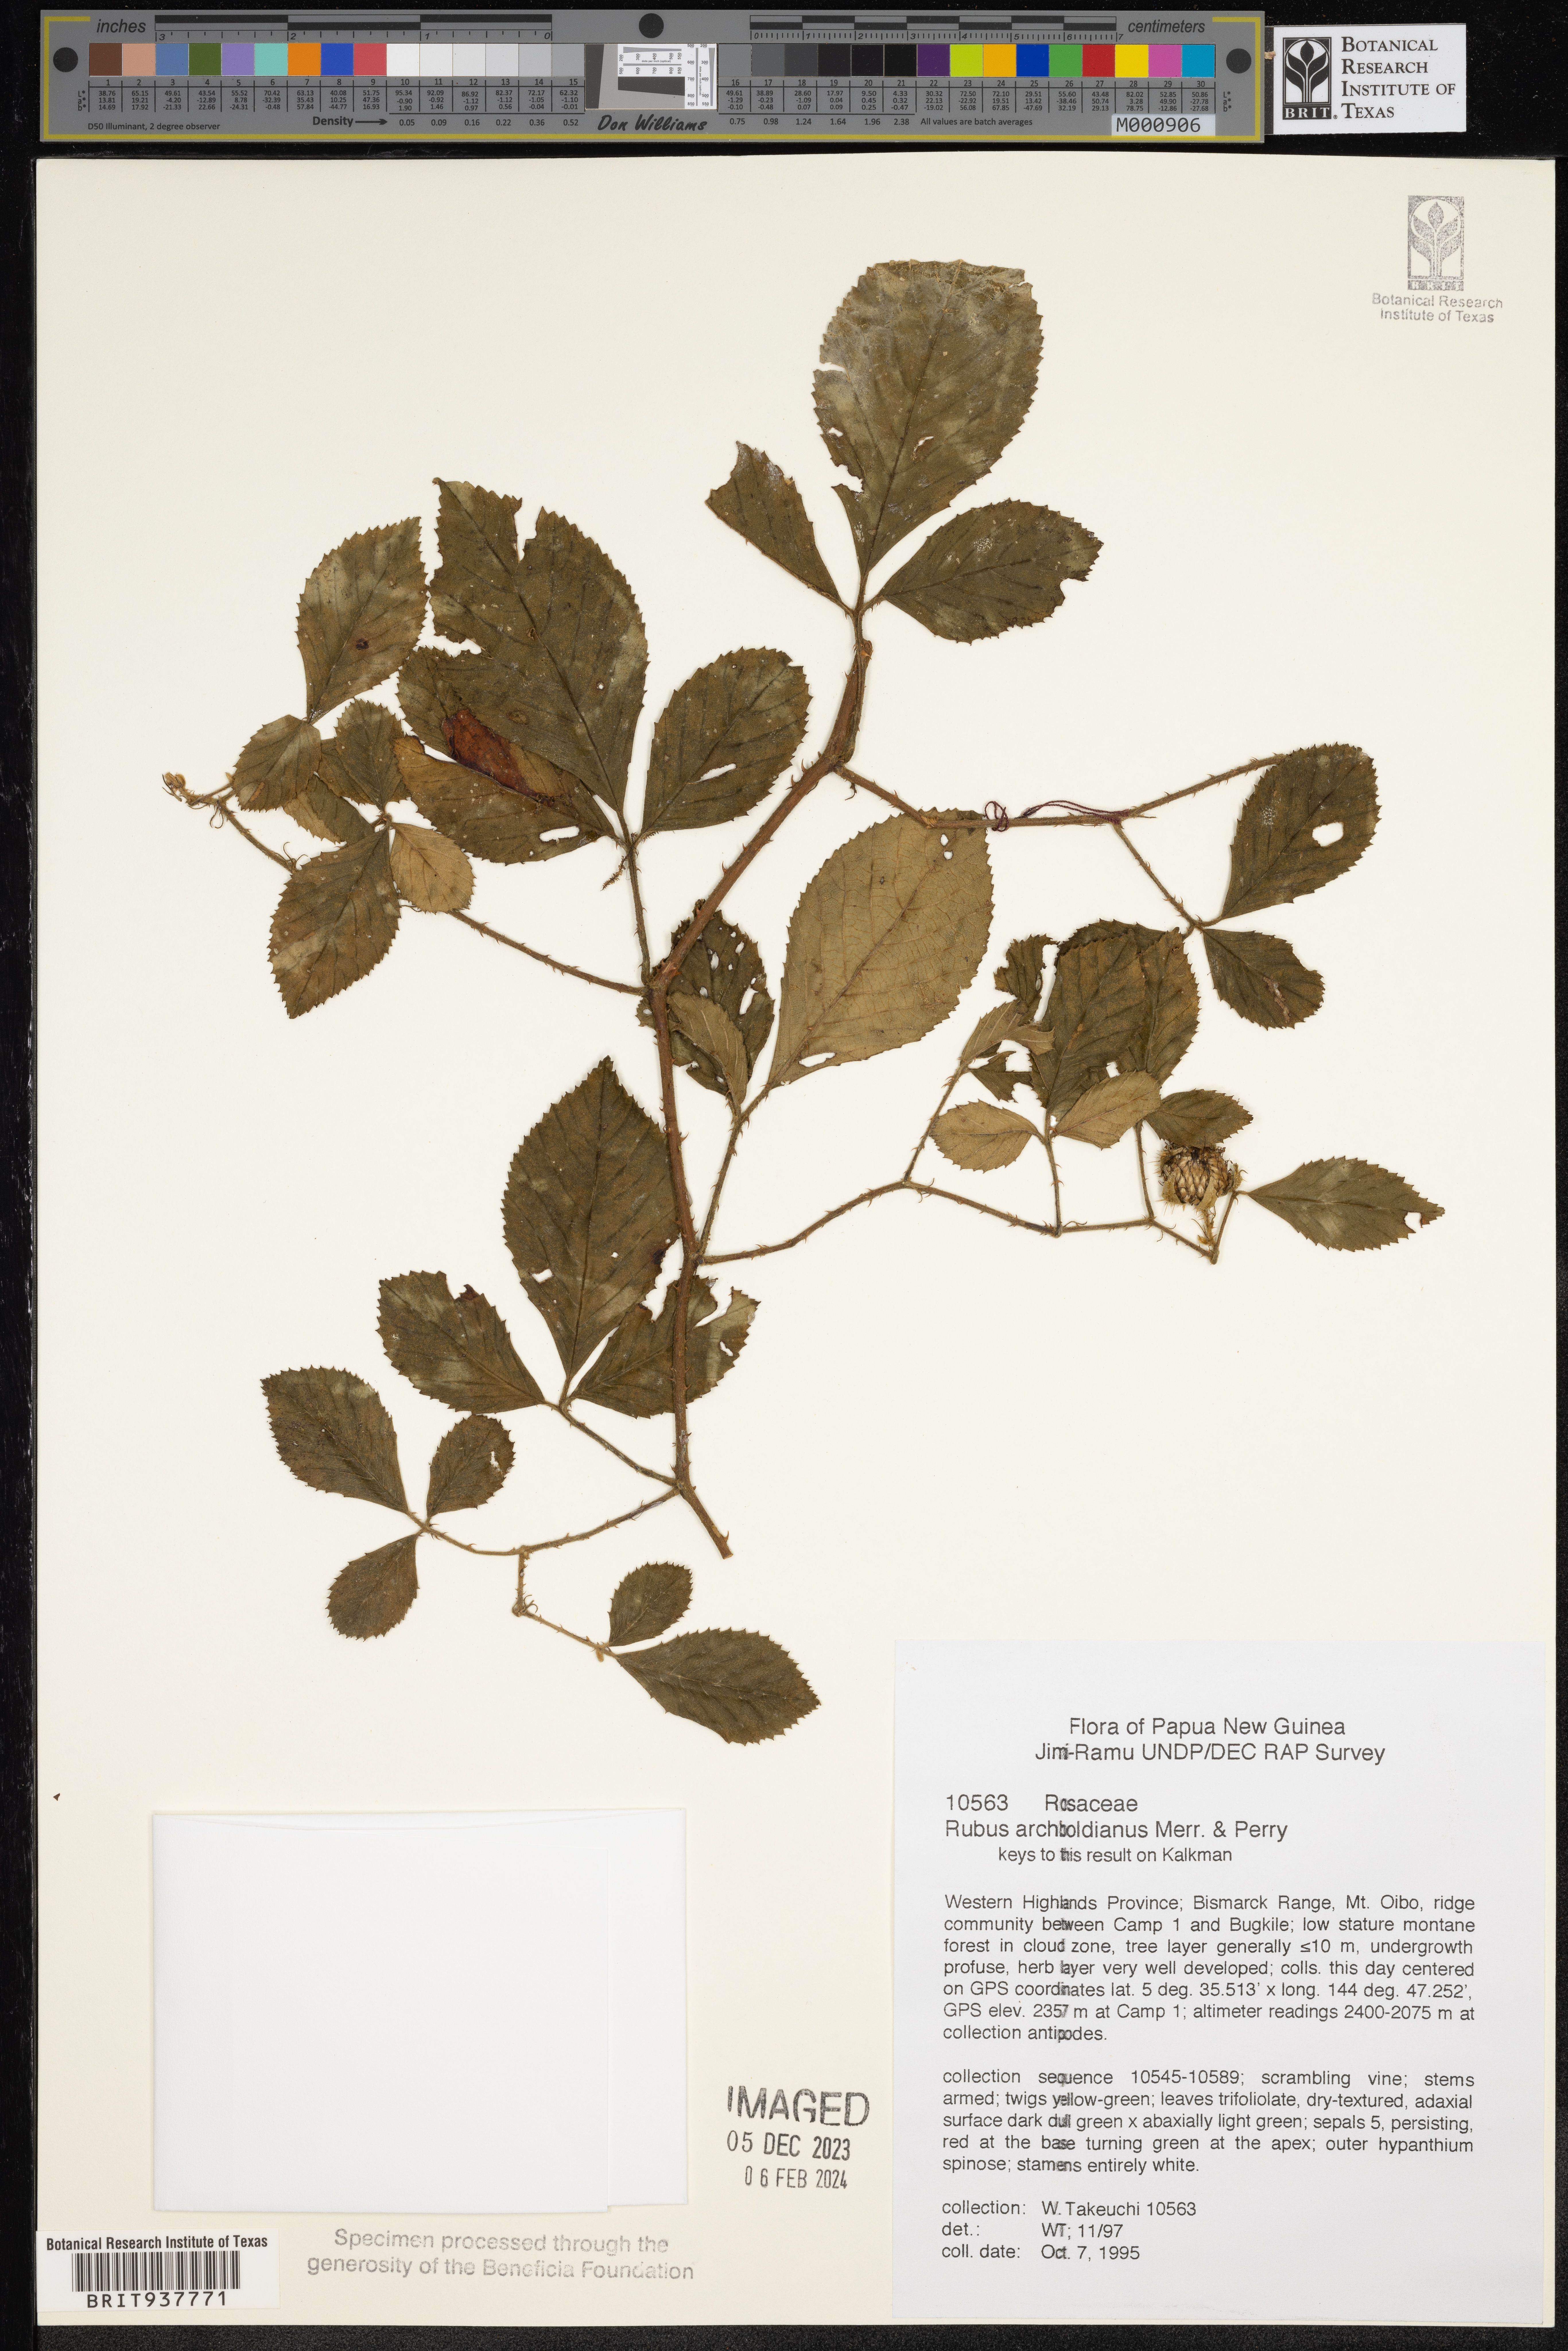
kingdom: Plantae
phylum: Tracheophyta
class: Magnoliopsida
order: Rosales
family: Rosaceae
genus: Rubus
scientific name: Rubus
